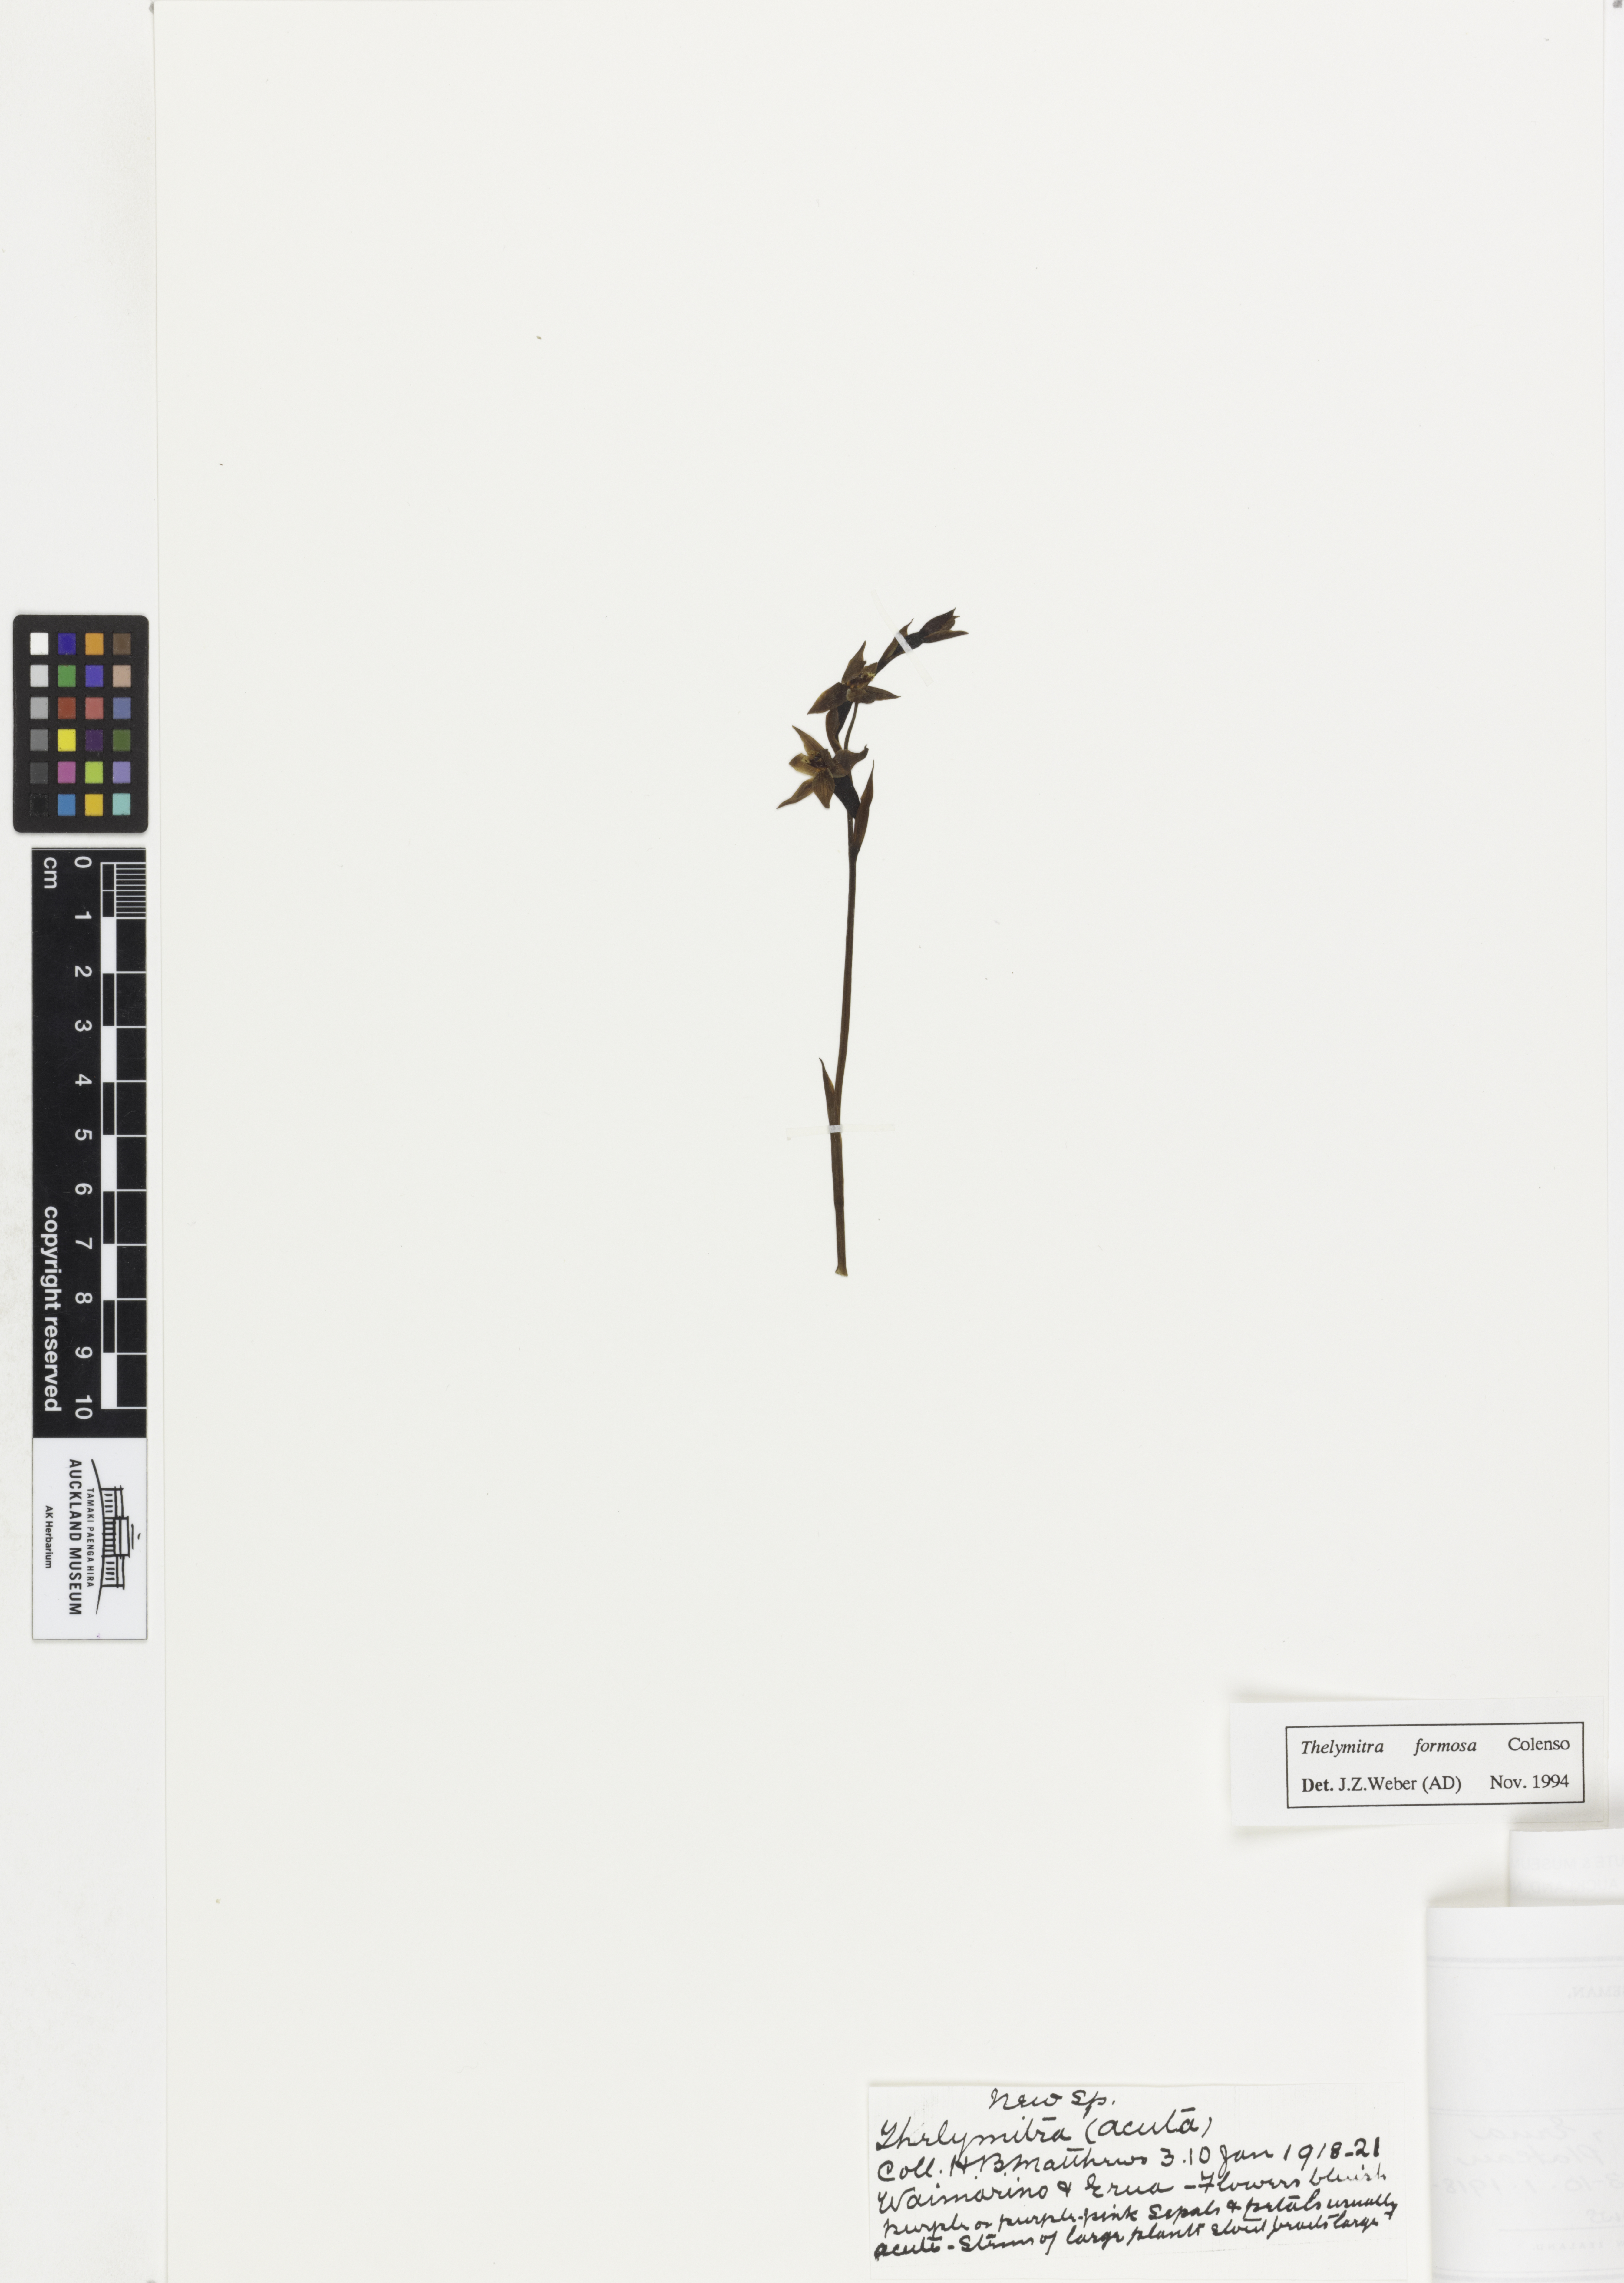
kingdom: Plantae
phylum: Tracheophyta
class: Liliopsida
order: Asparagales
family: Orchidaceae
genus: Thelymitra
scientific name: Thelymitra formosa
